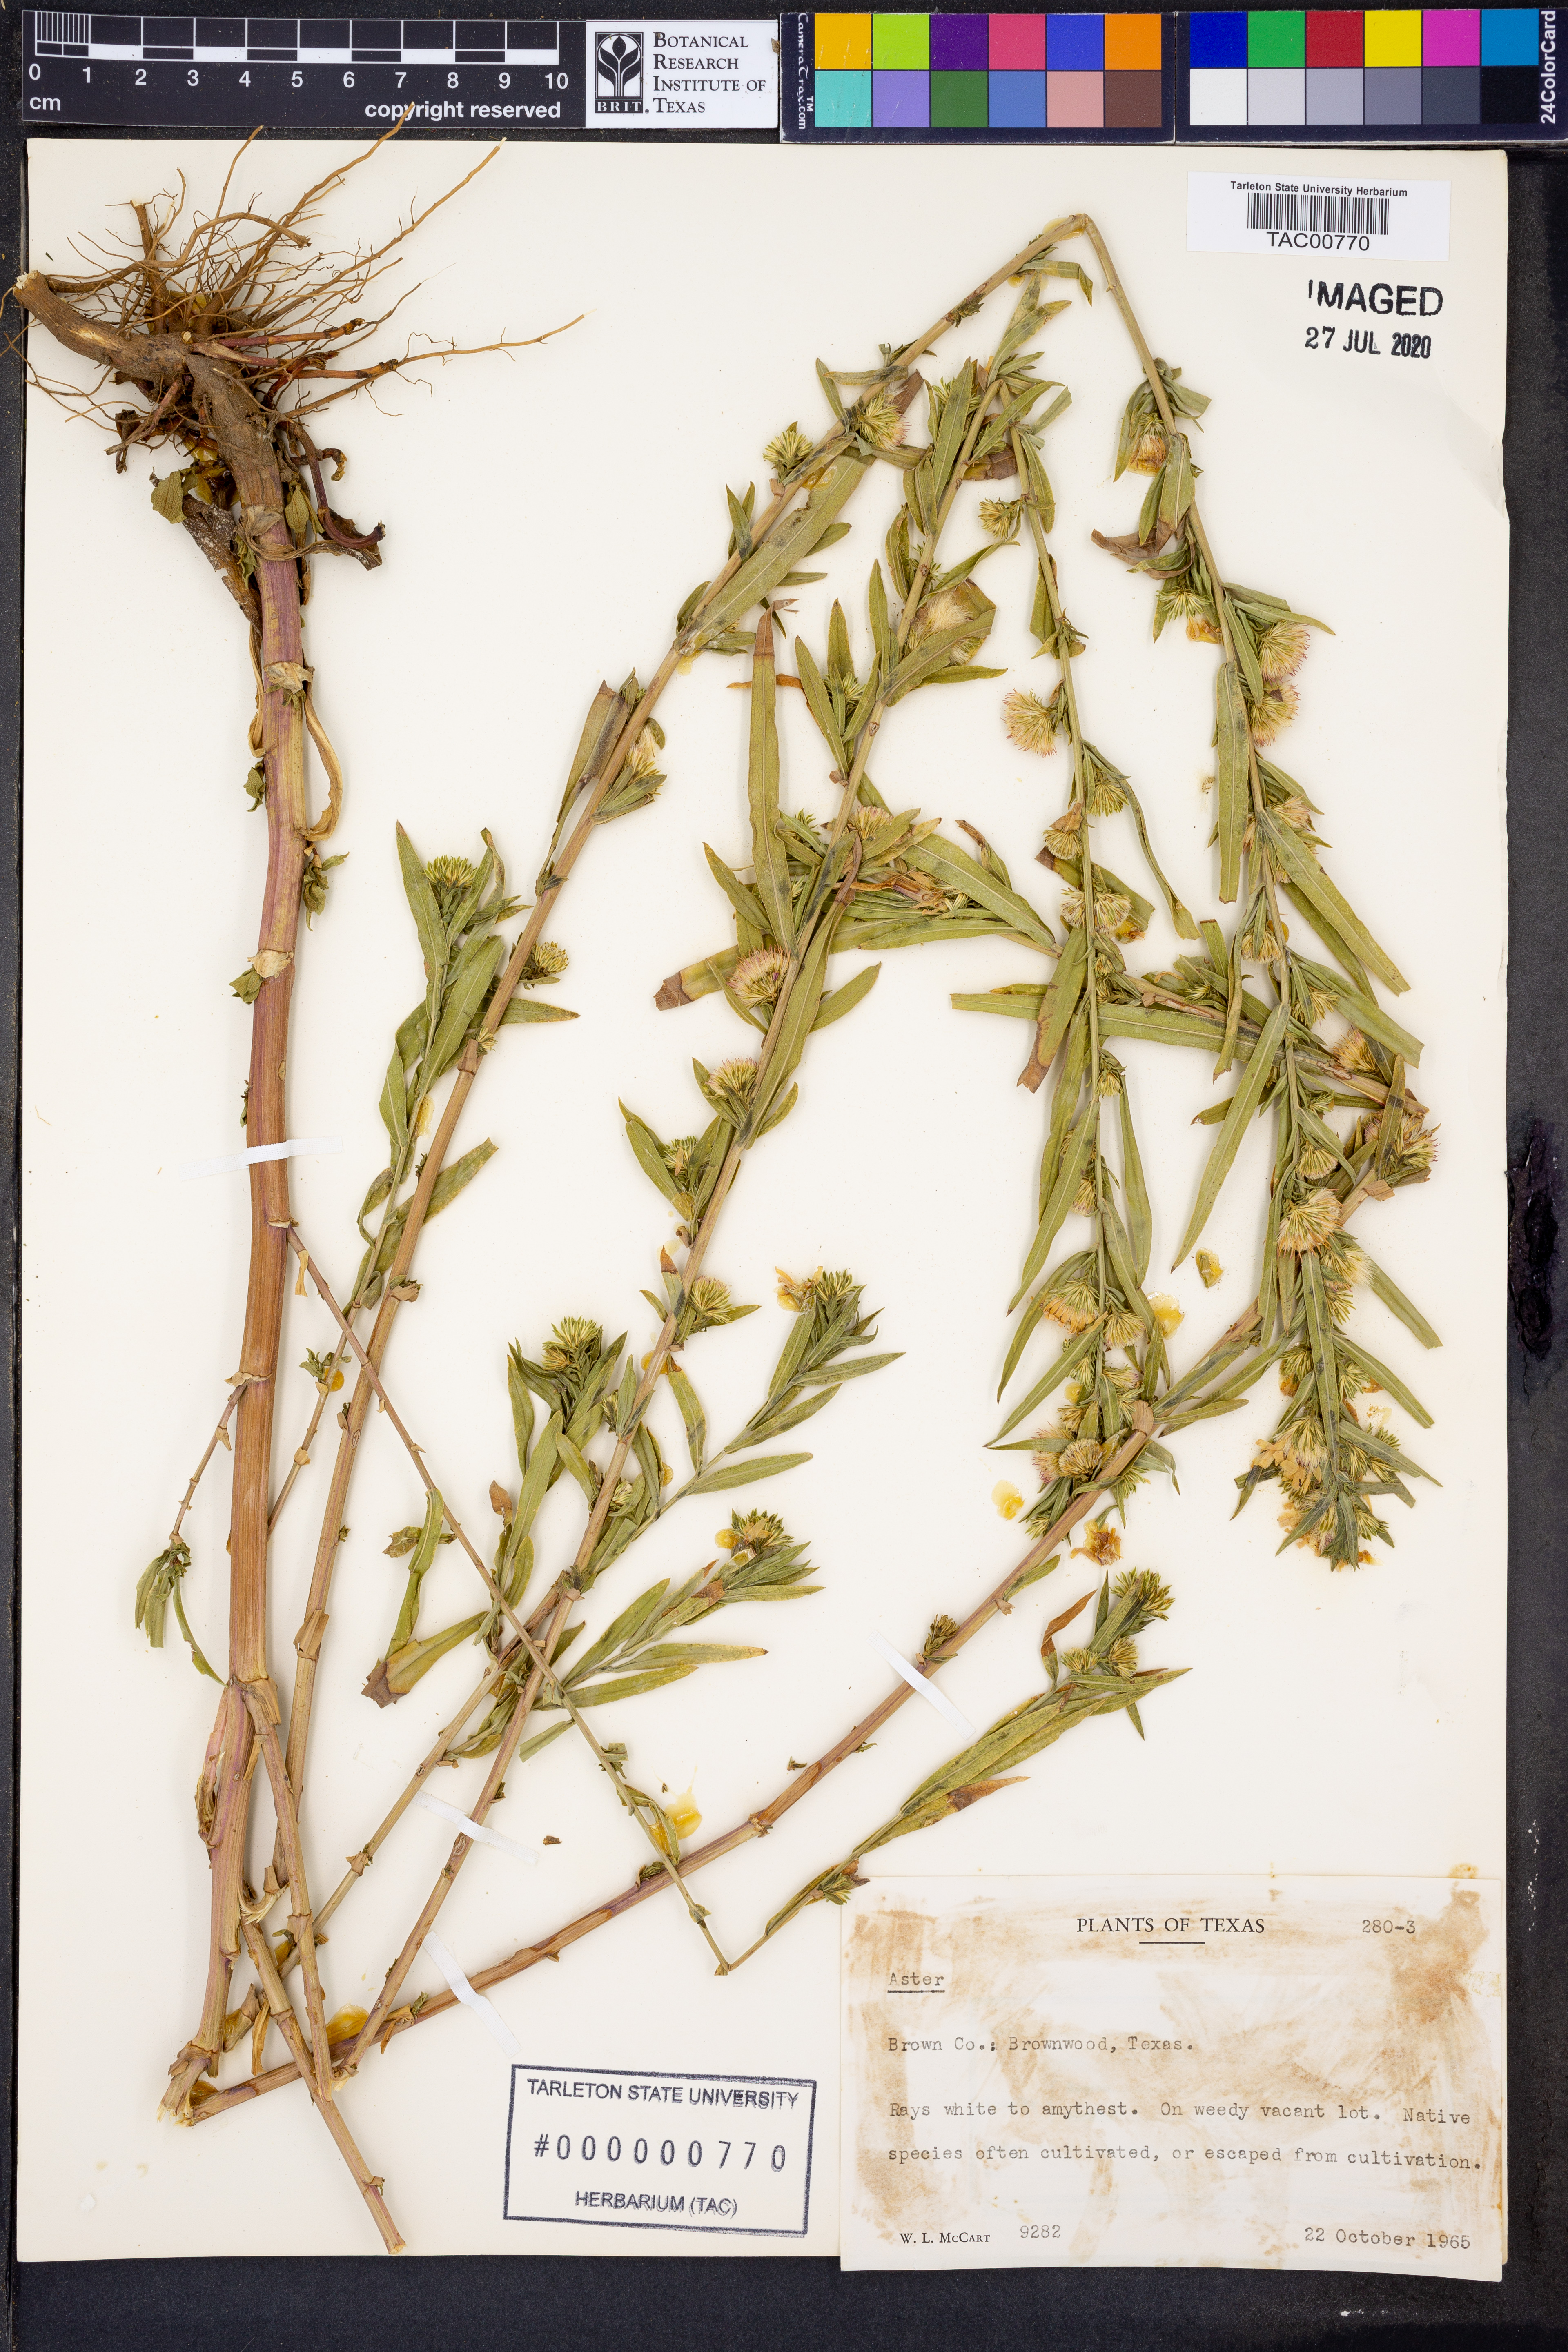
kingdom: Plantae
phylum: Tracheophyta
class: Magnoliopsida
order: Asterales
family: Asteraceae
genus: Aster
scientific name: Aster
